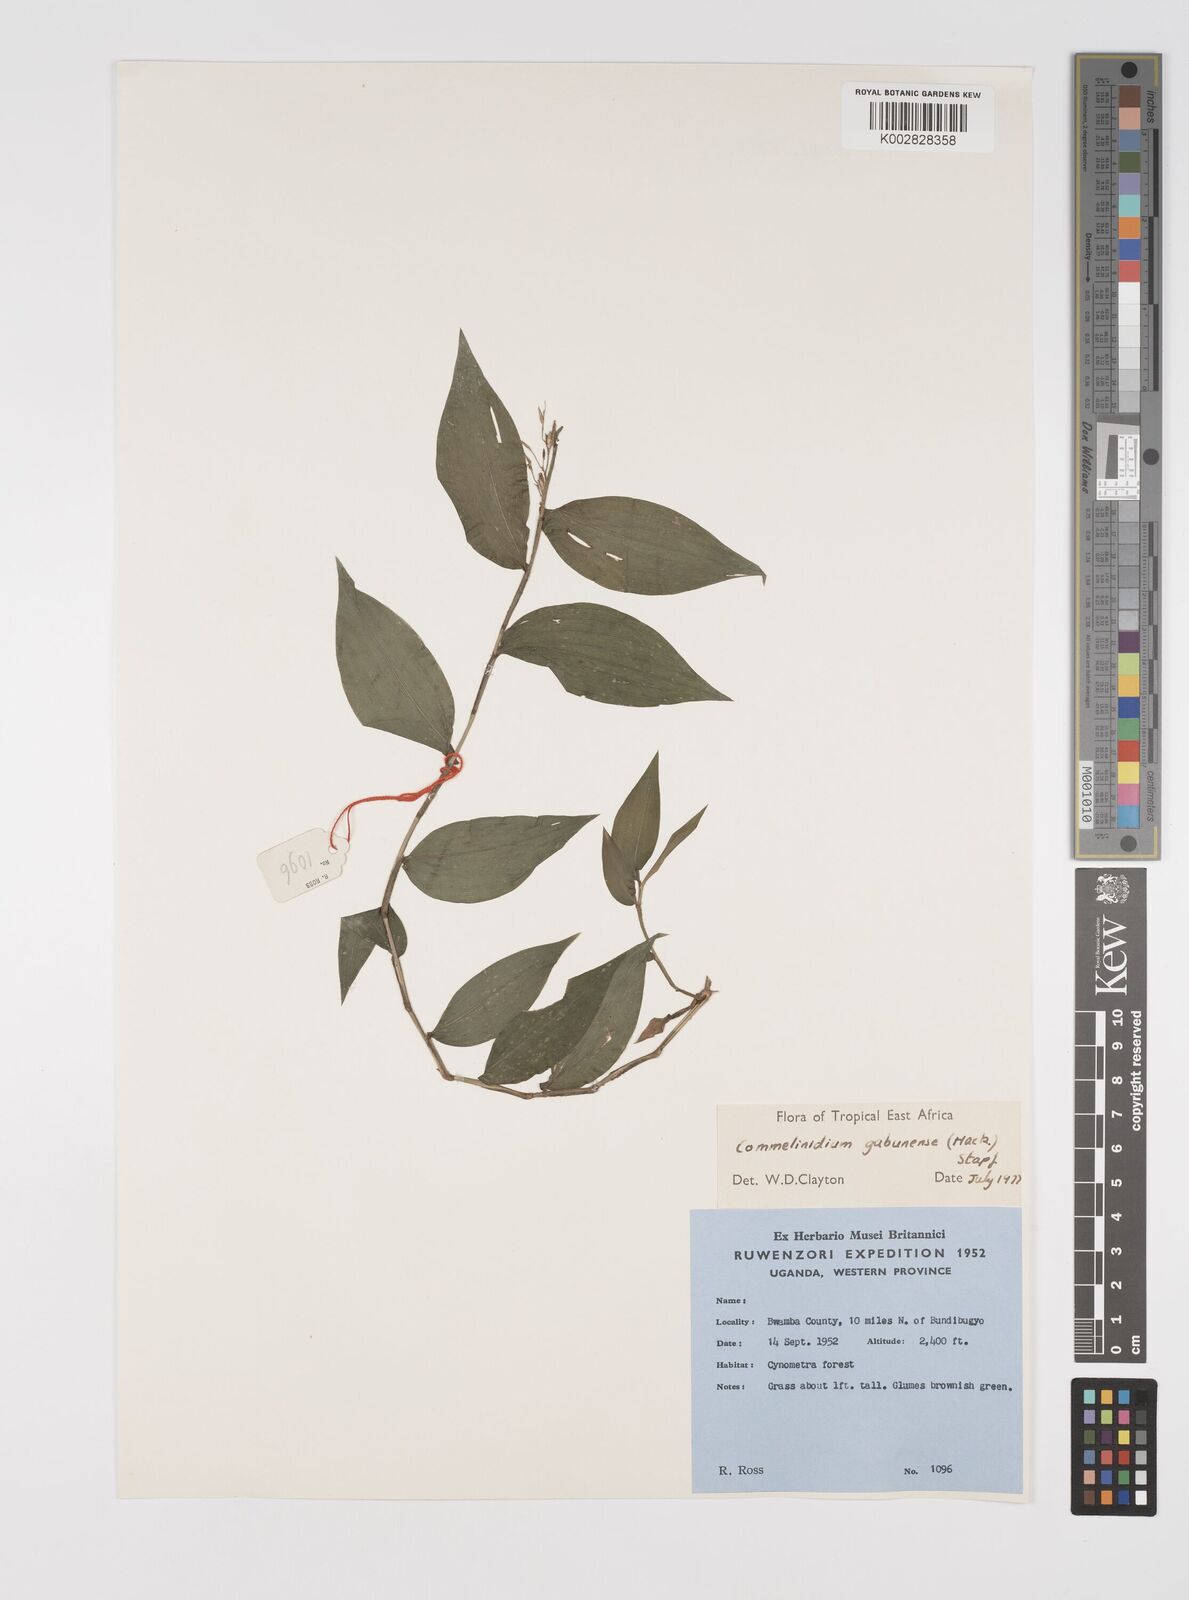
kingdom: Plantae
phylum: Tracheophyta
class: Liliopsida
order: Poales
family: Poaceae
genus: Acroceras
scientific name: Acroceras gabunense
